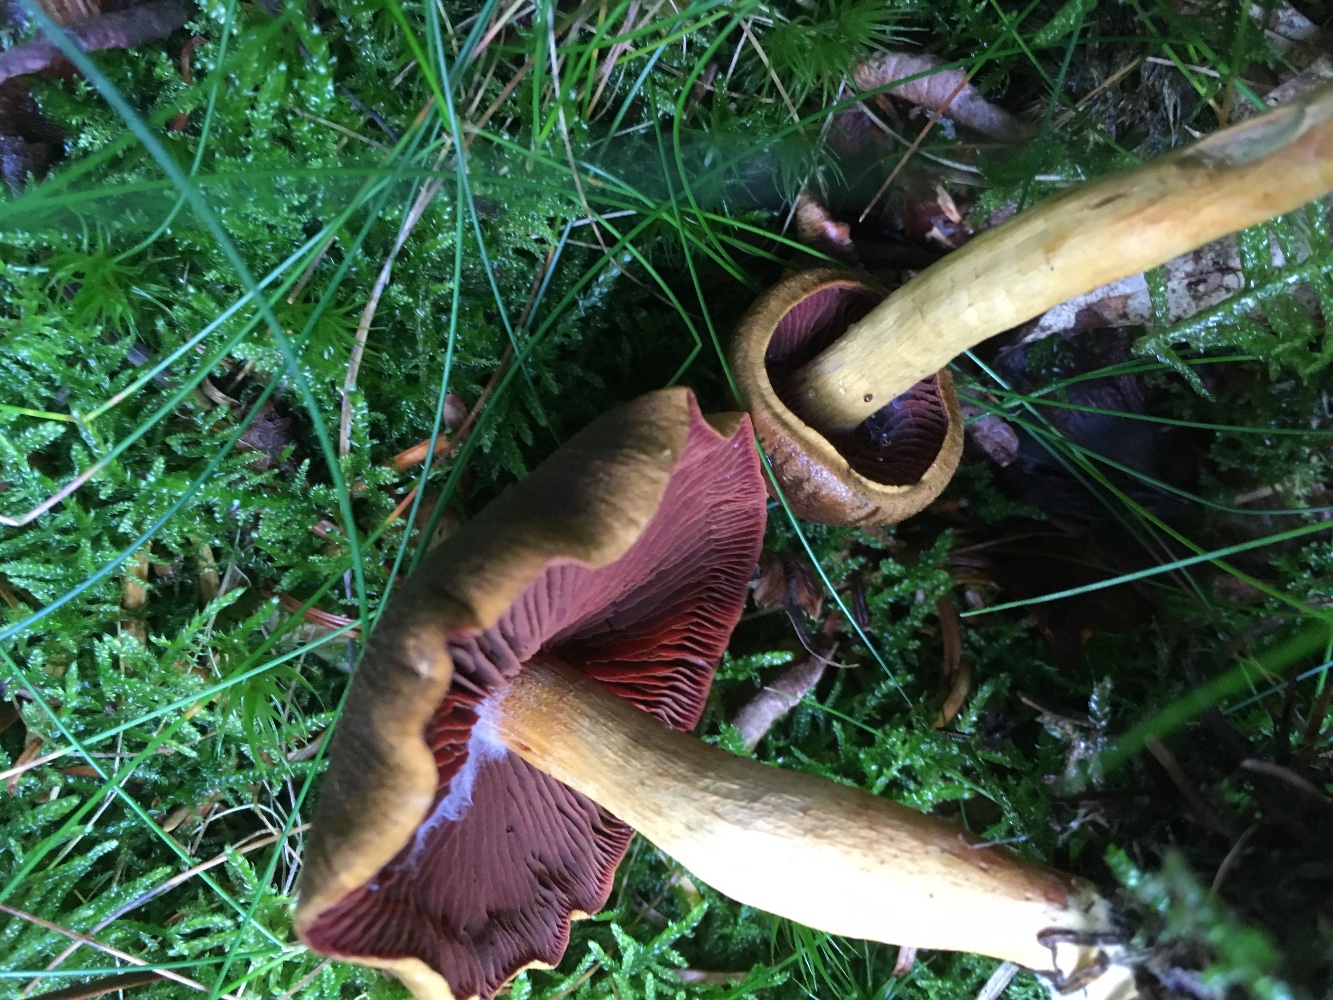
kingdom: Fungi
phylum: Basidiomycota
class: Agaricomycetes
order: Agaricales
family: Cortinariaceae
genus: Cortinarius
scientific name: Cortinarius
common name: cinnoberbladet slørhat
